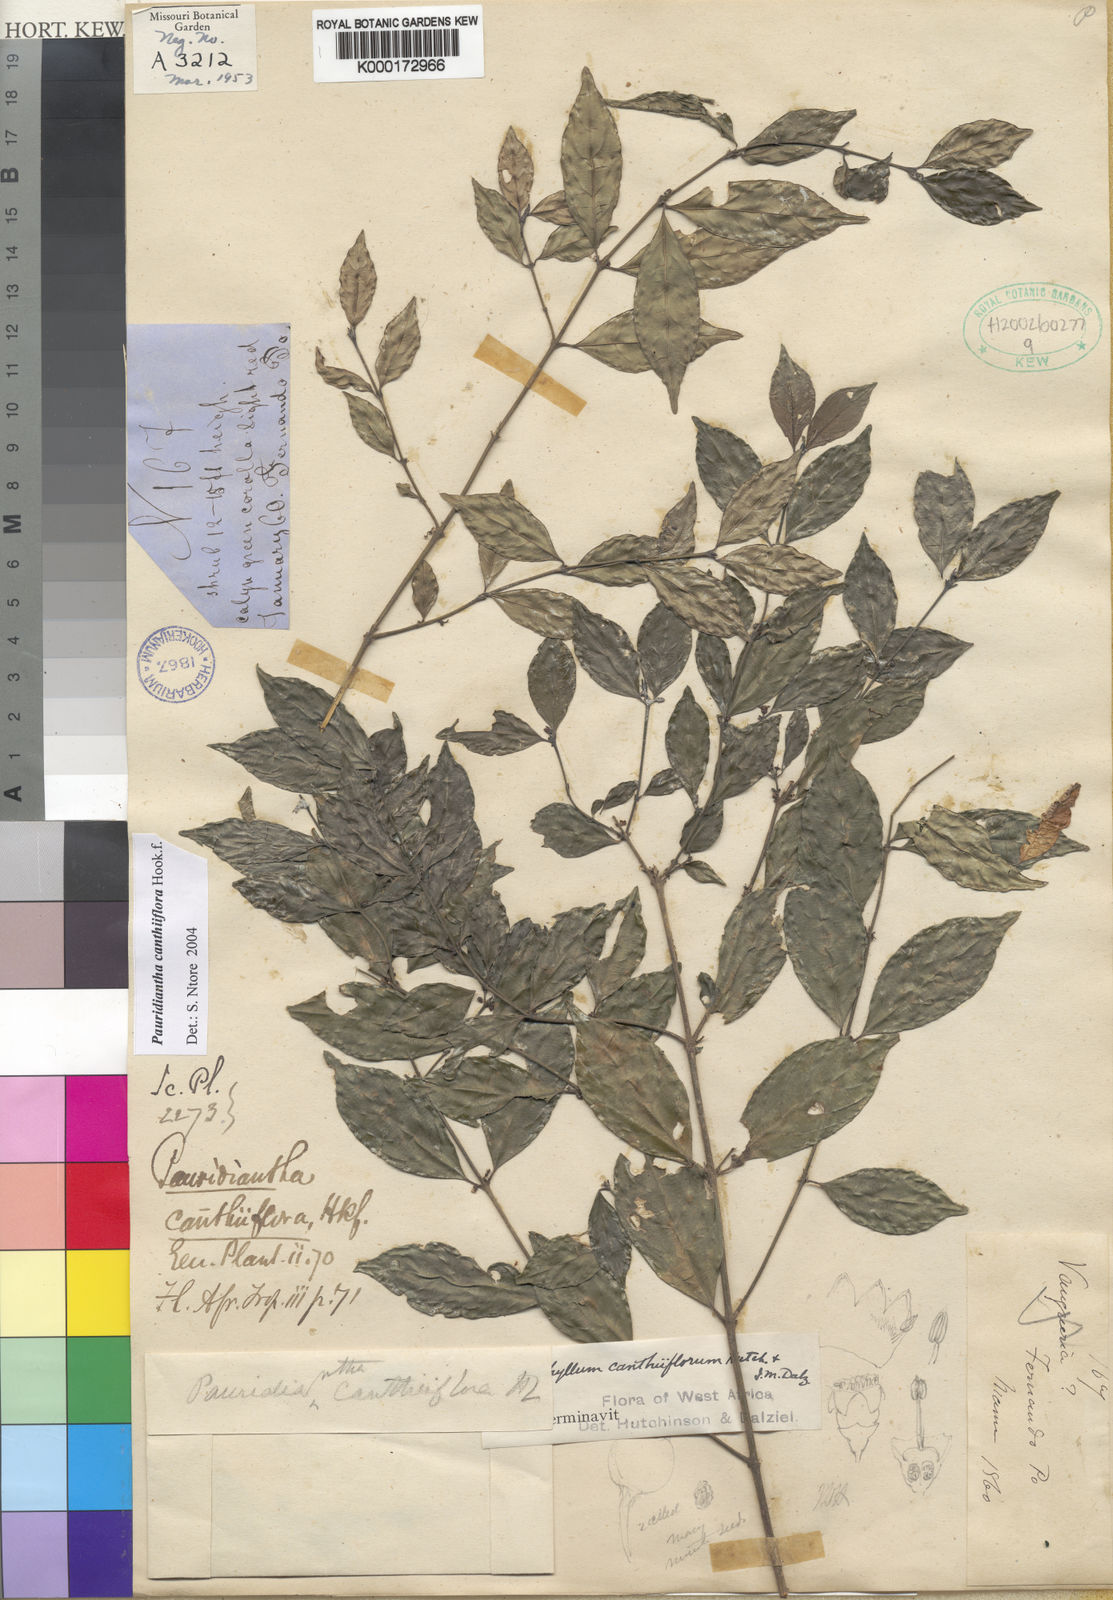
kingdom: Plantae
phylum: Tracheophyta
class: Magnoliopsida
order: Gentianales
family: Rubiaceae
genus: Pauridiantha
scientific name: Pauridiantha canthiiflora
